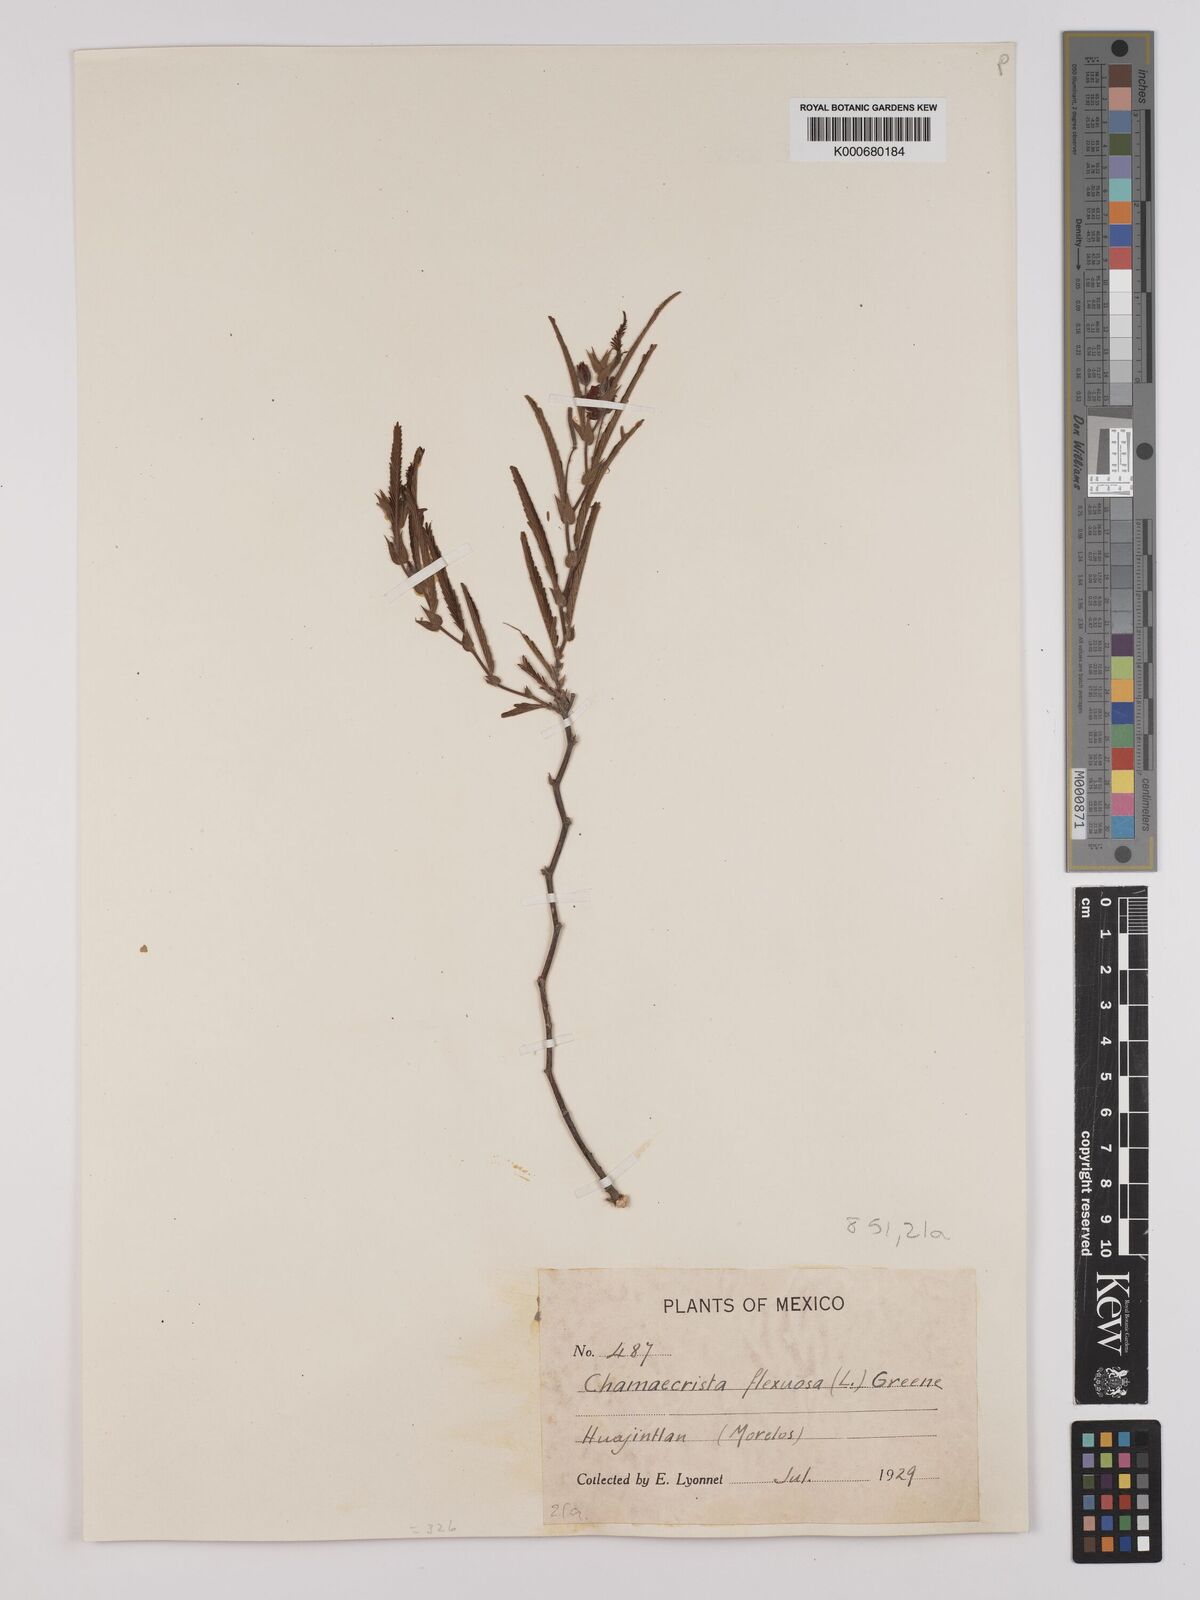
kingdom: Plantae
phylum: Tracheophyta
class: Magnoliopsida
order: Fabales
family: Fabaceae
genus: Chamaecrista
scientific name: Chamaecrista flexuosa
